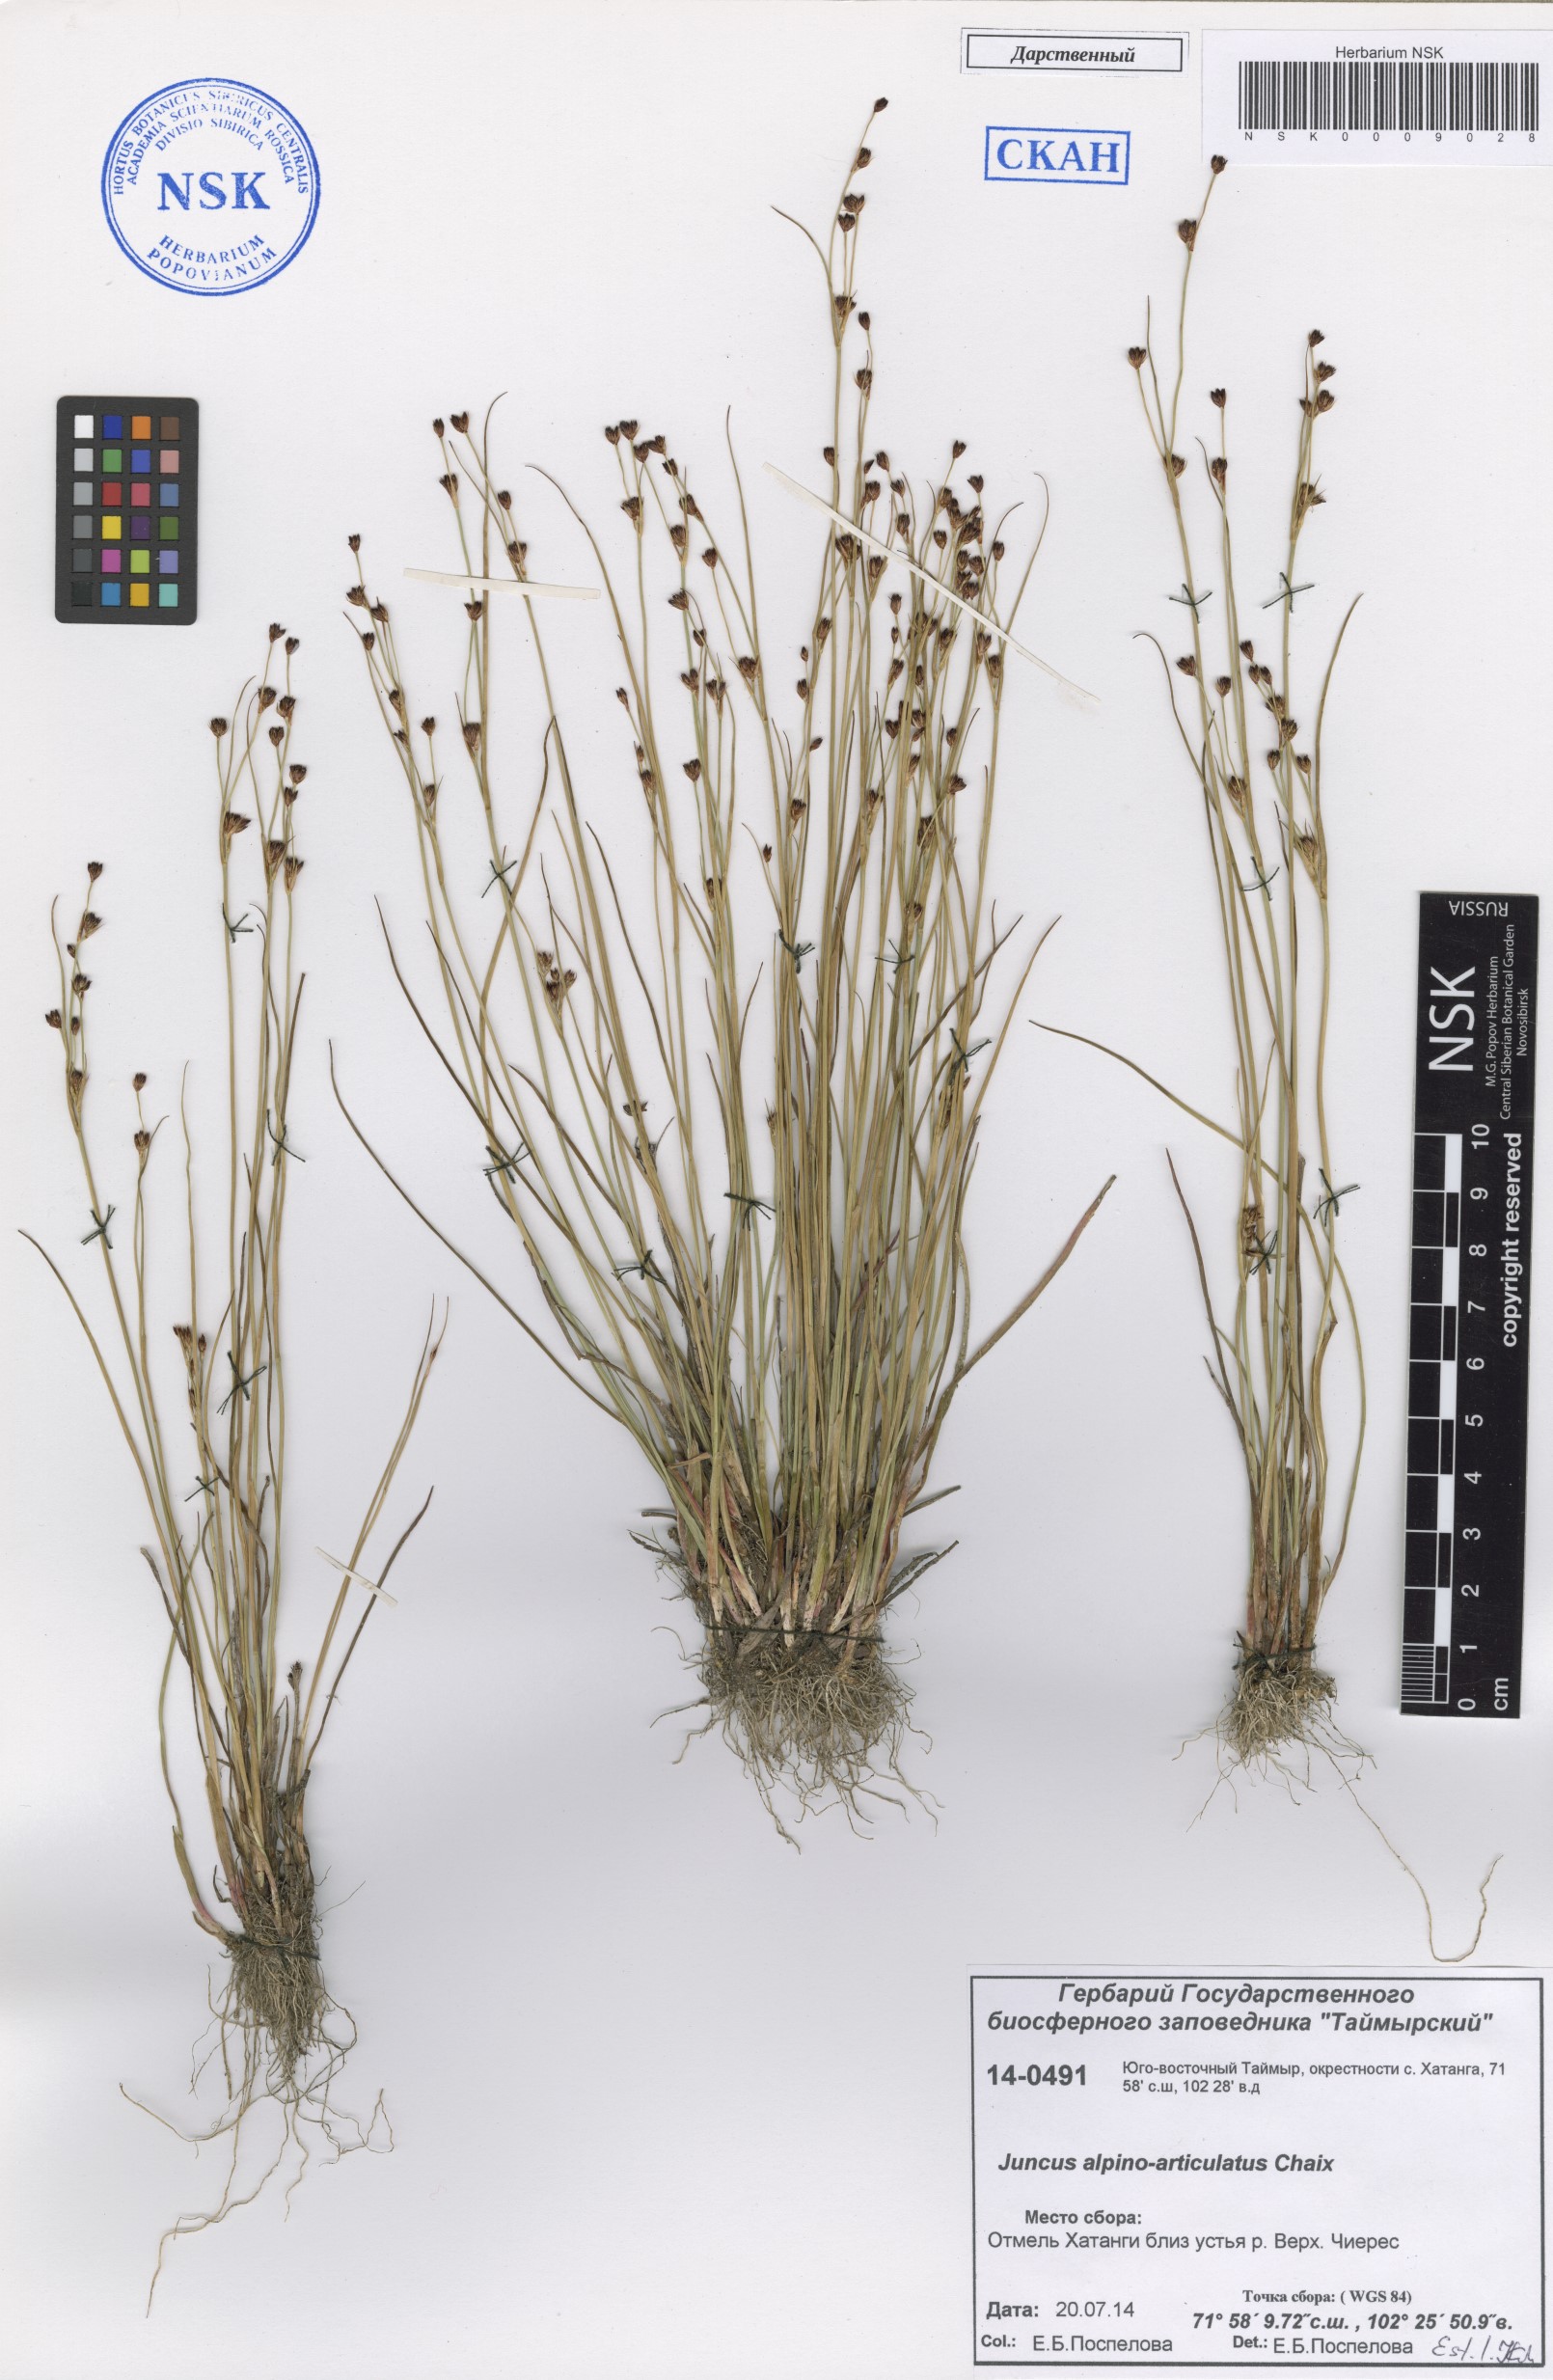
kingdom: Plantae
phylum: Tracheophyta
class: Liliopsida
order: Poales
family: Juncaceae
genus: Juncus
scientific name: Juncus alpinoarticulatus
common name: Alpine rush
